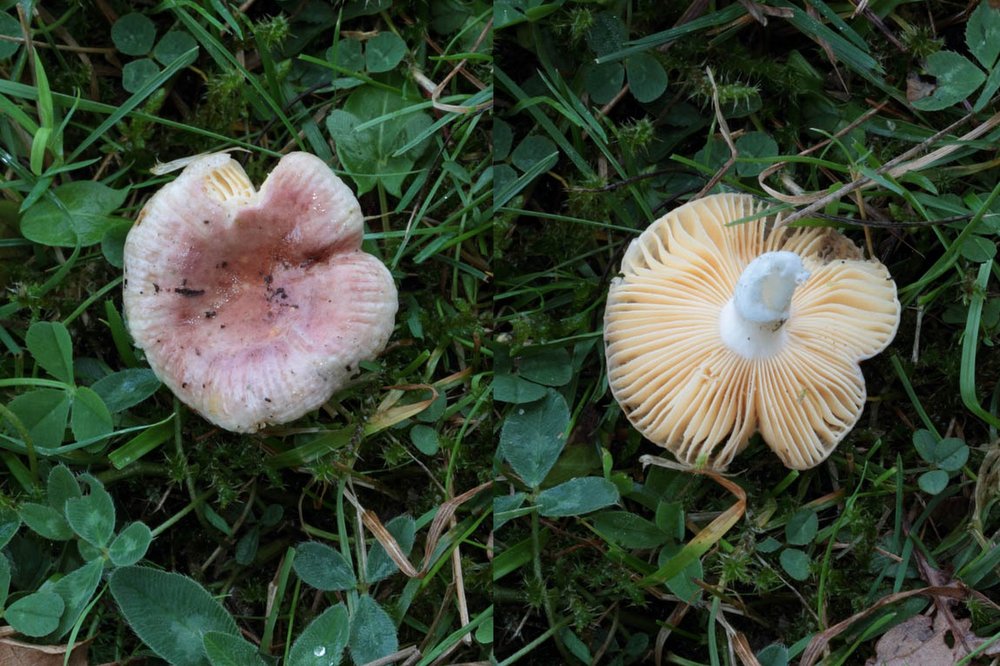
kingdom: Fungi
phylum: Basidiomycota
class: Agaricomycetes
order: Russulales
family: Russulaceae
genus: Russula
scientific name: Russula odorata
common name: duft-skørhat
